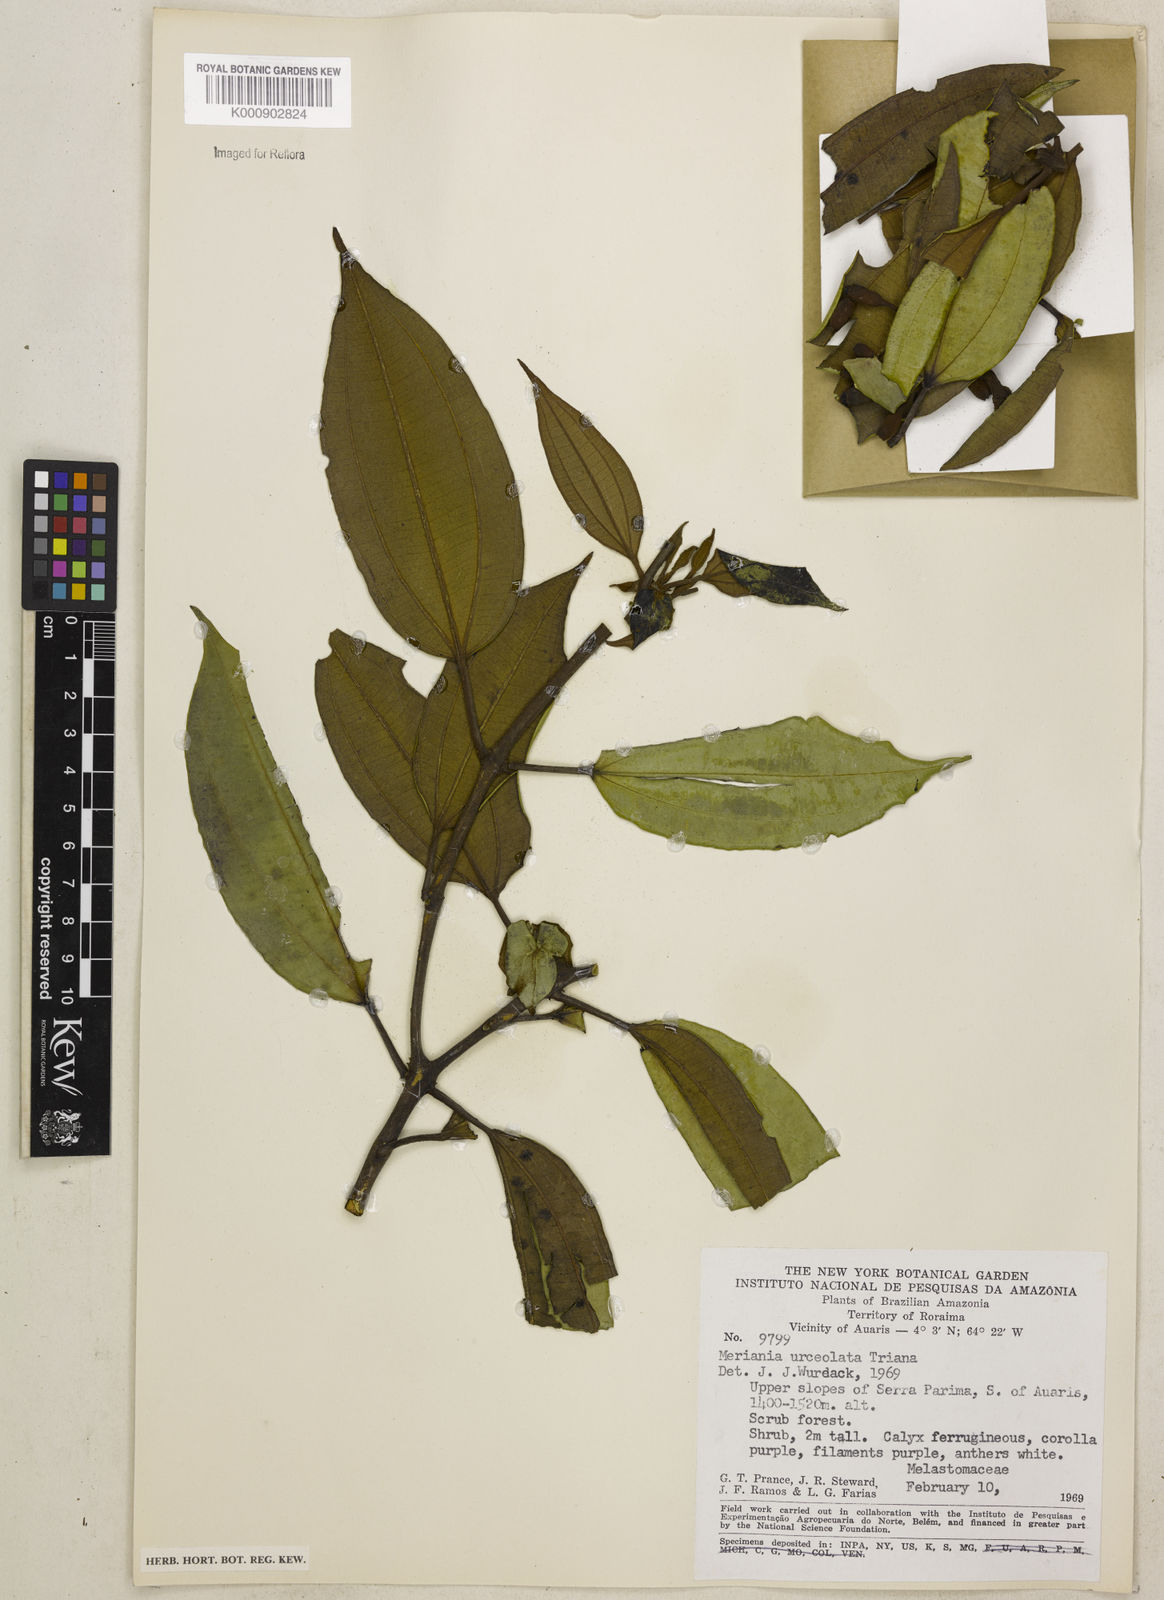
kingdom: Plantae
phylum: Tracheophyta
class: Magnoliopsida
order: Myrtales
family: Melastomataceae
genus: Meriania
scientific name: Meriania urceolata
